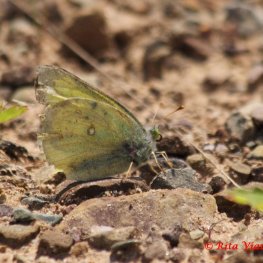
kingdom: Animalia
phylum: Arthropoda
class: Insecta
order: Lepidoptera
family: Pieridae
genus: Colias
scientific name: Colias philodice
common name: Clouded Sulphur
